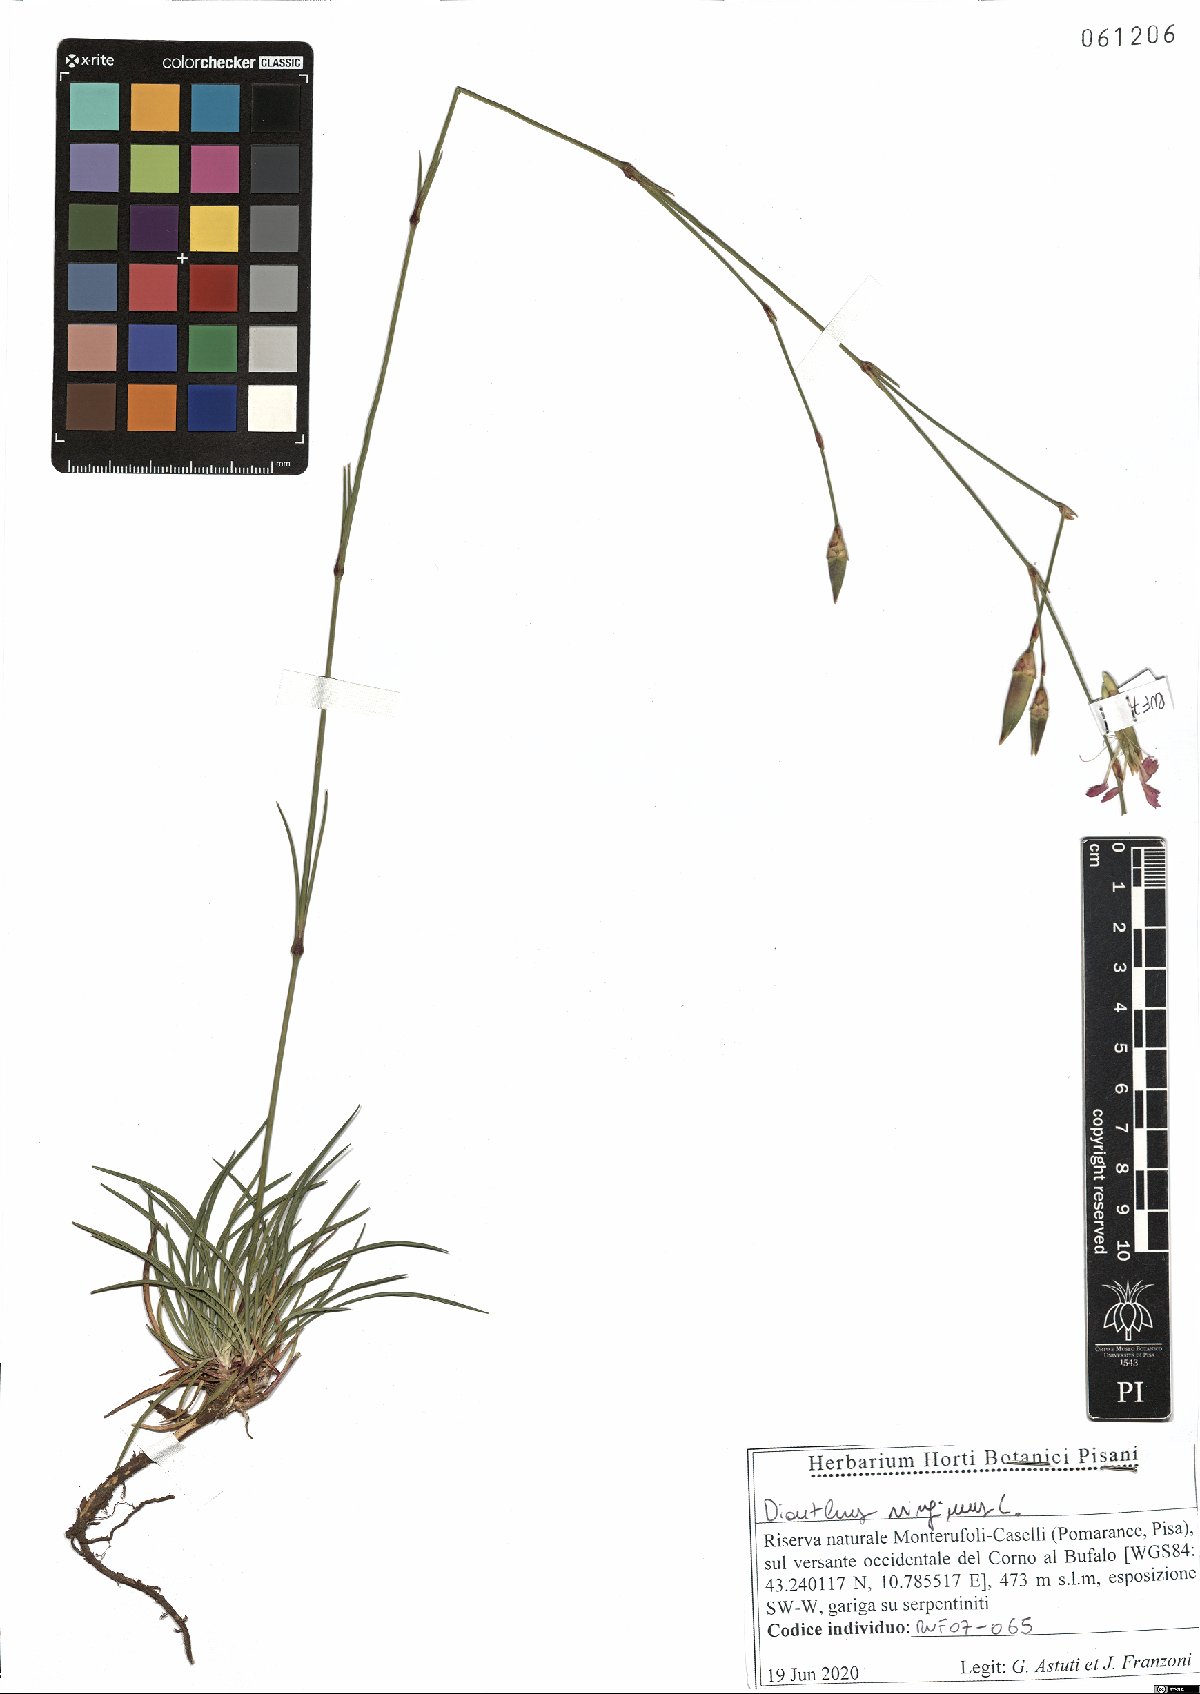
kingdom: Plantae
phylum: Tracheophyta
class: Magnoliopsida
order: Caryophyllales
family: Caryophyllaceae
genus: Dianthus
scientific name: Dianthus virgineus
